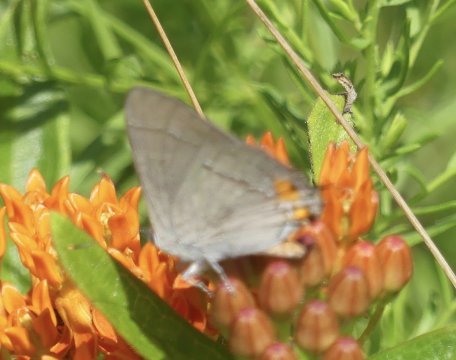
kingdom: Animalia
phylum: Arthropoda
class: Insecta
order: Lepidoptera
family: Lycaenidae
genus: Strymon
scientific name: Strymon melinus
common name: Gray Hairstreak
